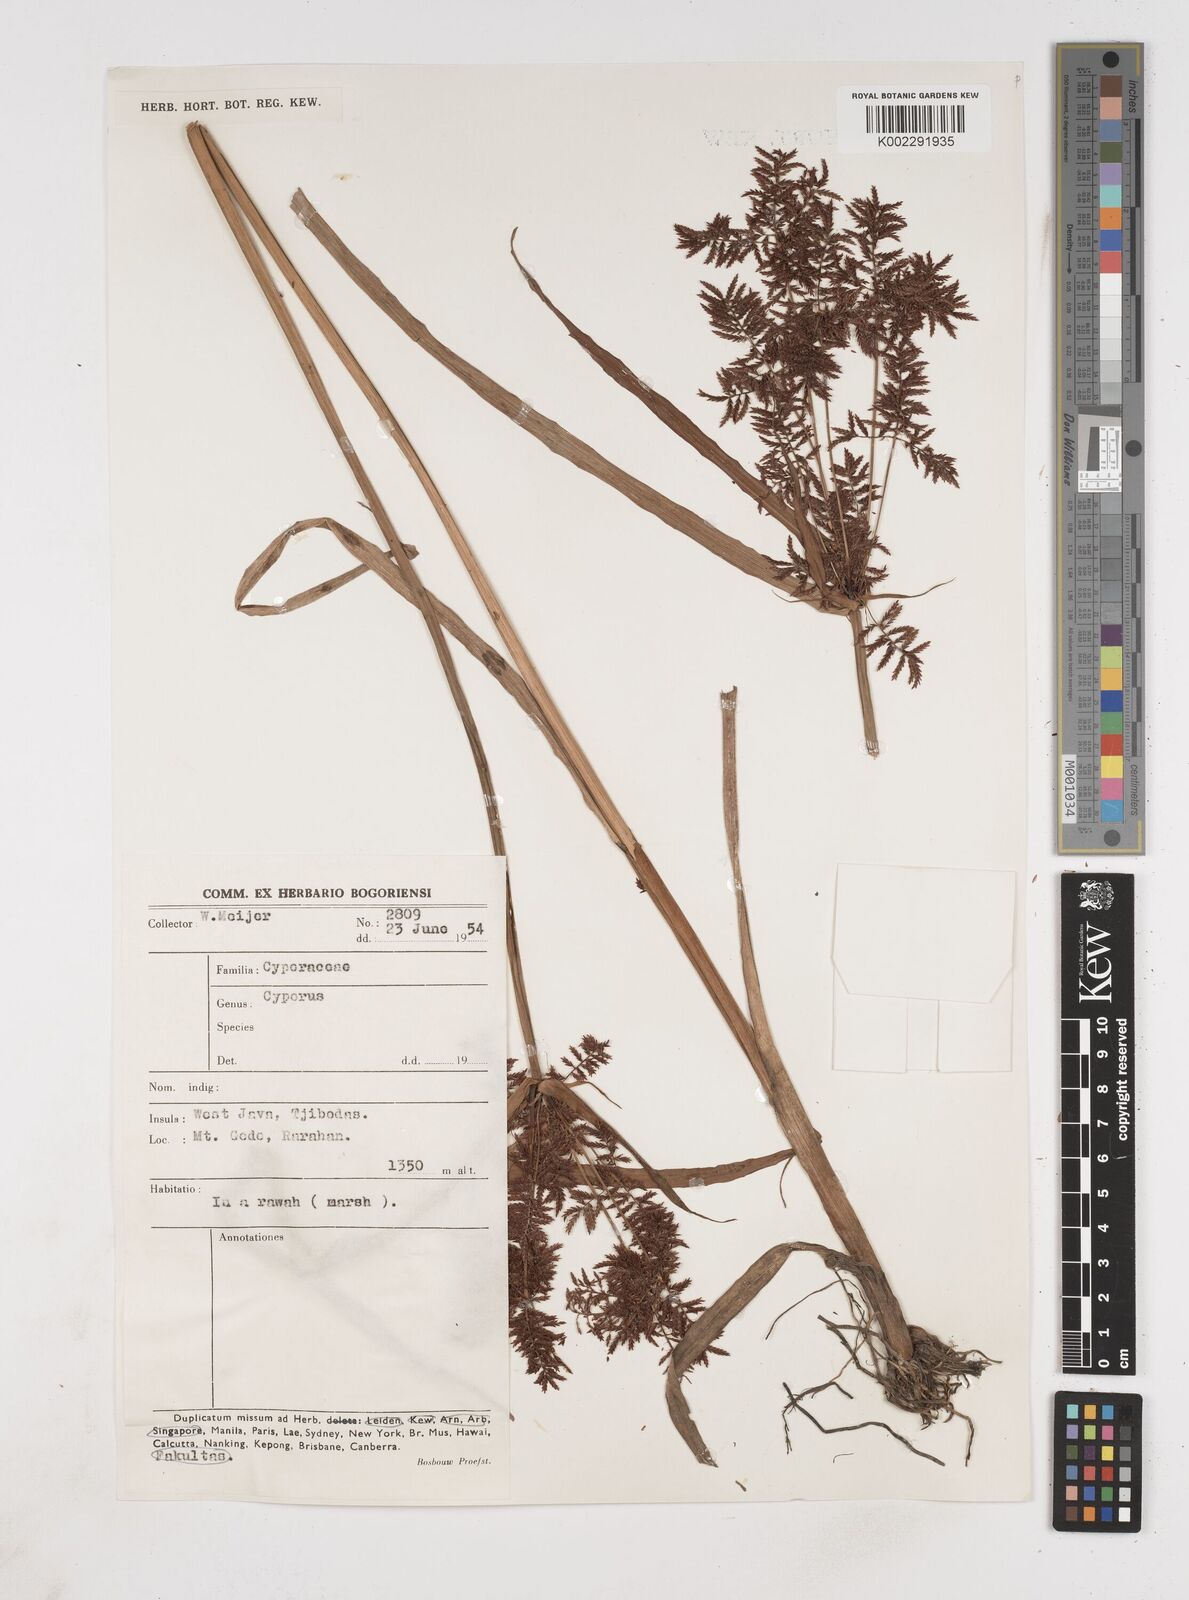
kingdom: Plantae
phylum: Tracheophyta
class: Liliopsida
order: Poales
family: Cyperaceae
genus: Cyperus
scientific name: Cyperus
